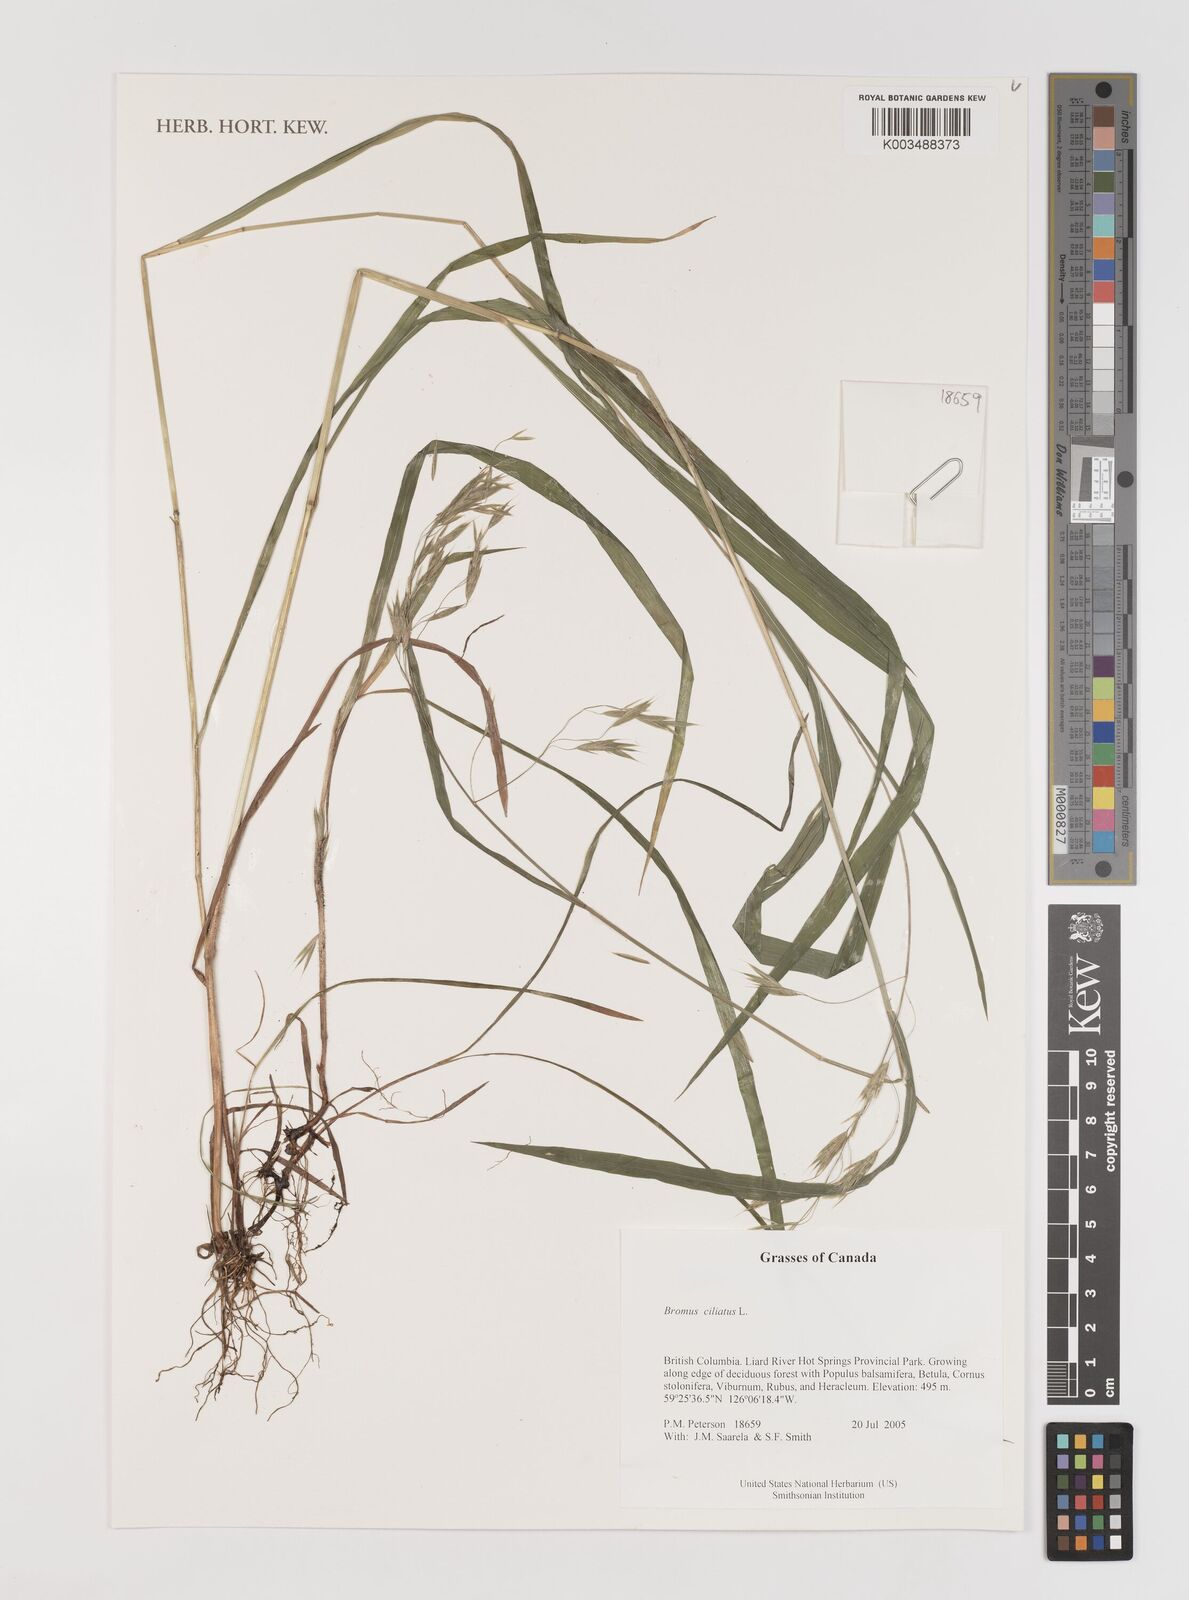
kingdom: Plantae
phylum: Tracheophyta
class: Liliopsida
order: Poales
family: Poaceae
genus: Bromus
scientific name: Bromus ciliatus
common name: Fringe brome
